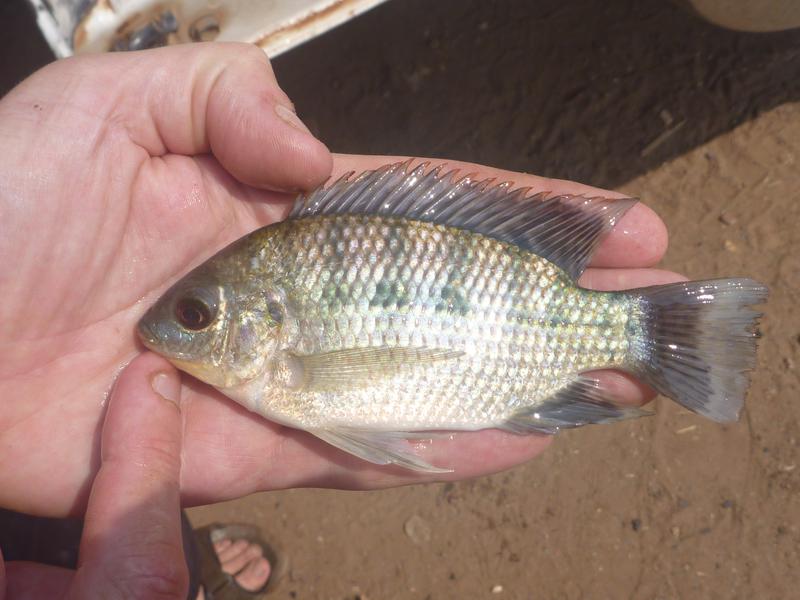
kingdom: Animalia
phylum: Chordata
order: Perciformes
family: Cichlidae
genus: Oreochromis
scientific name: Oreochromis upembae
